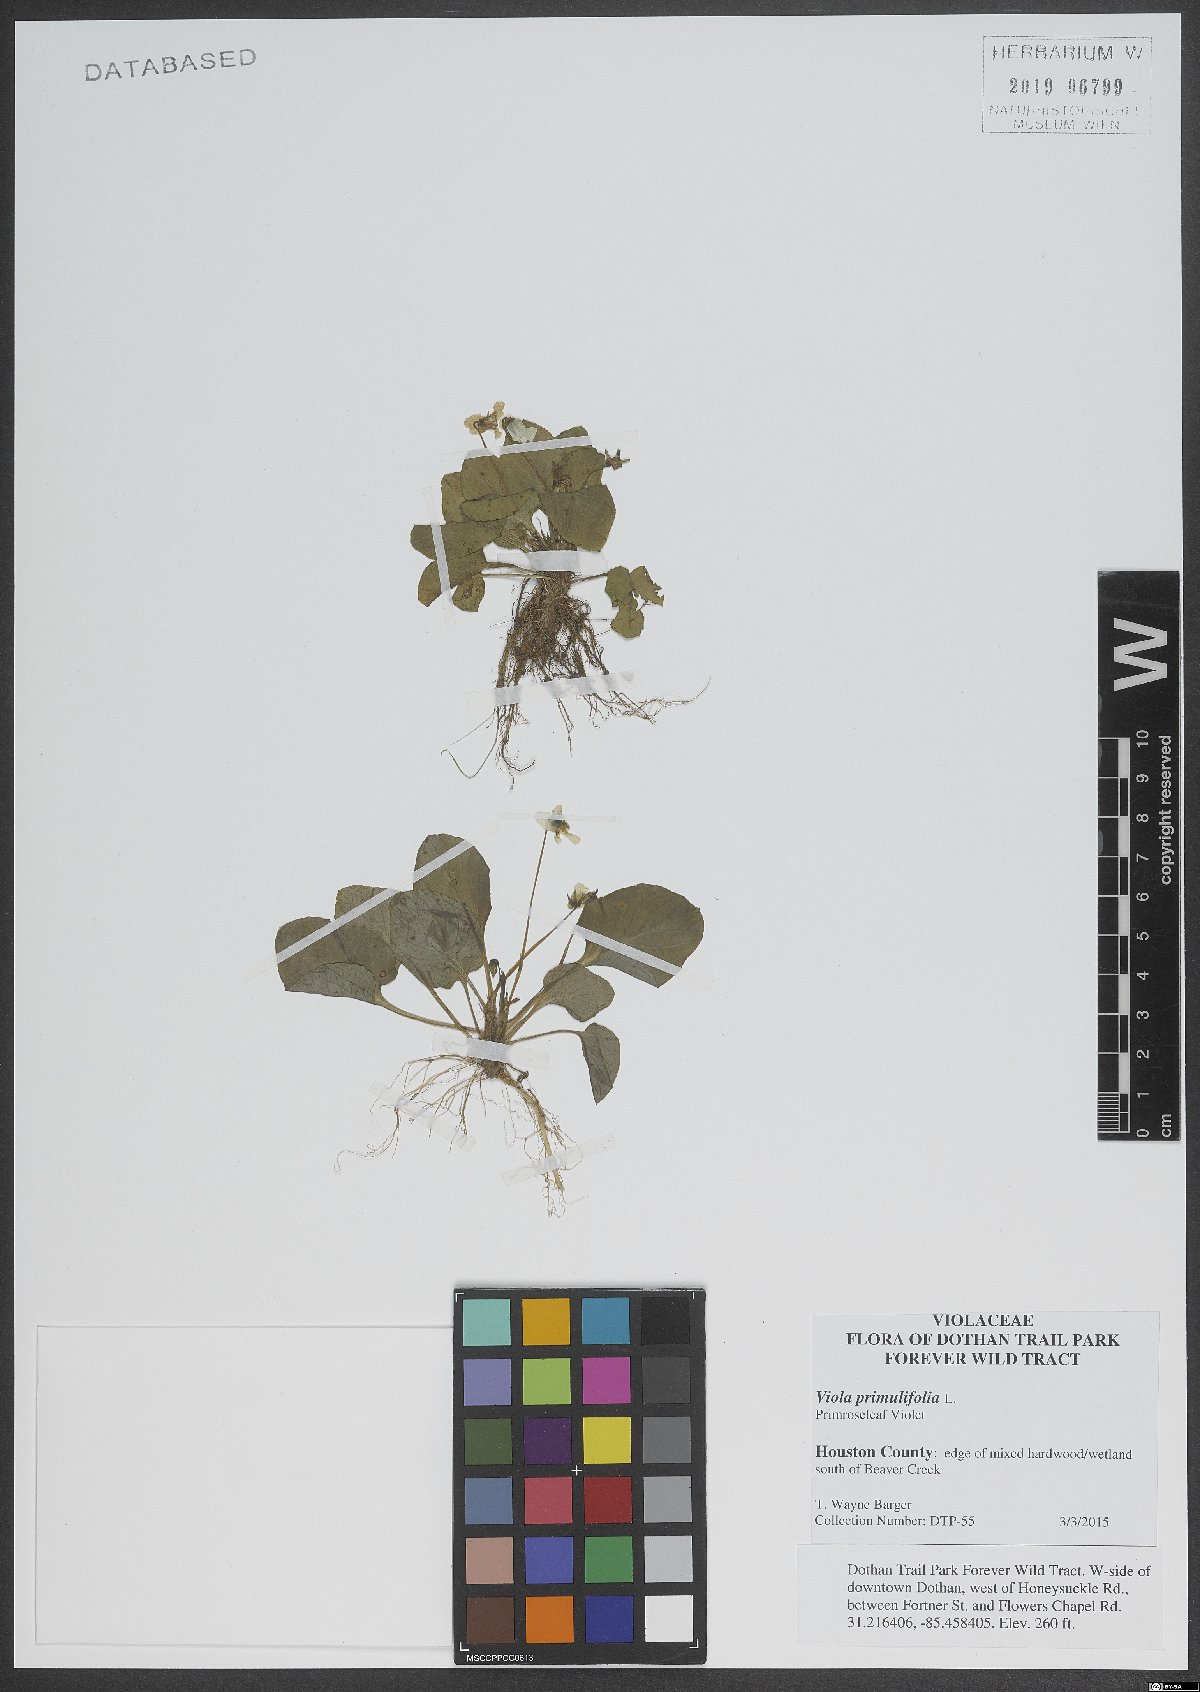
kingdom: Plantae
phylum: Tracheophyta
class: Magnoliopsida
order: Malpighiales
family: Violaceae
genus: Viola
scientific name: Viola primulifolia
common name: Primrose-leaf violet
